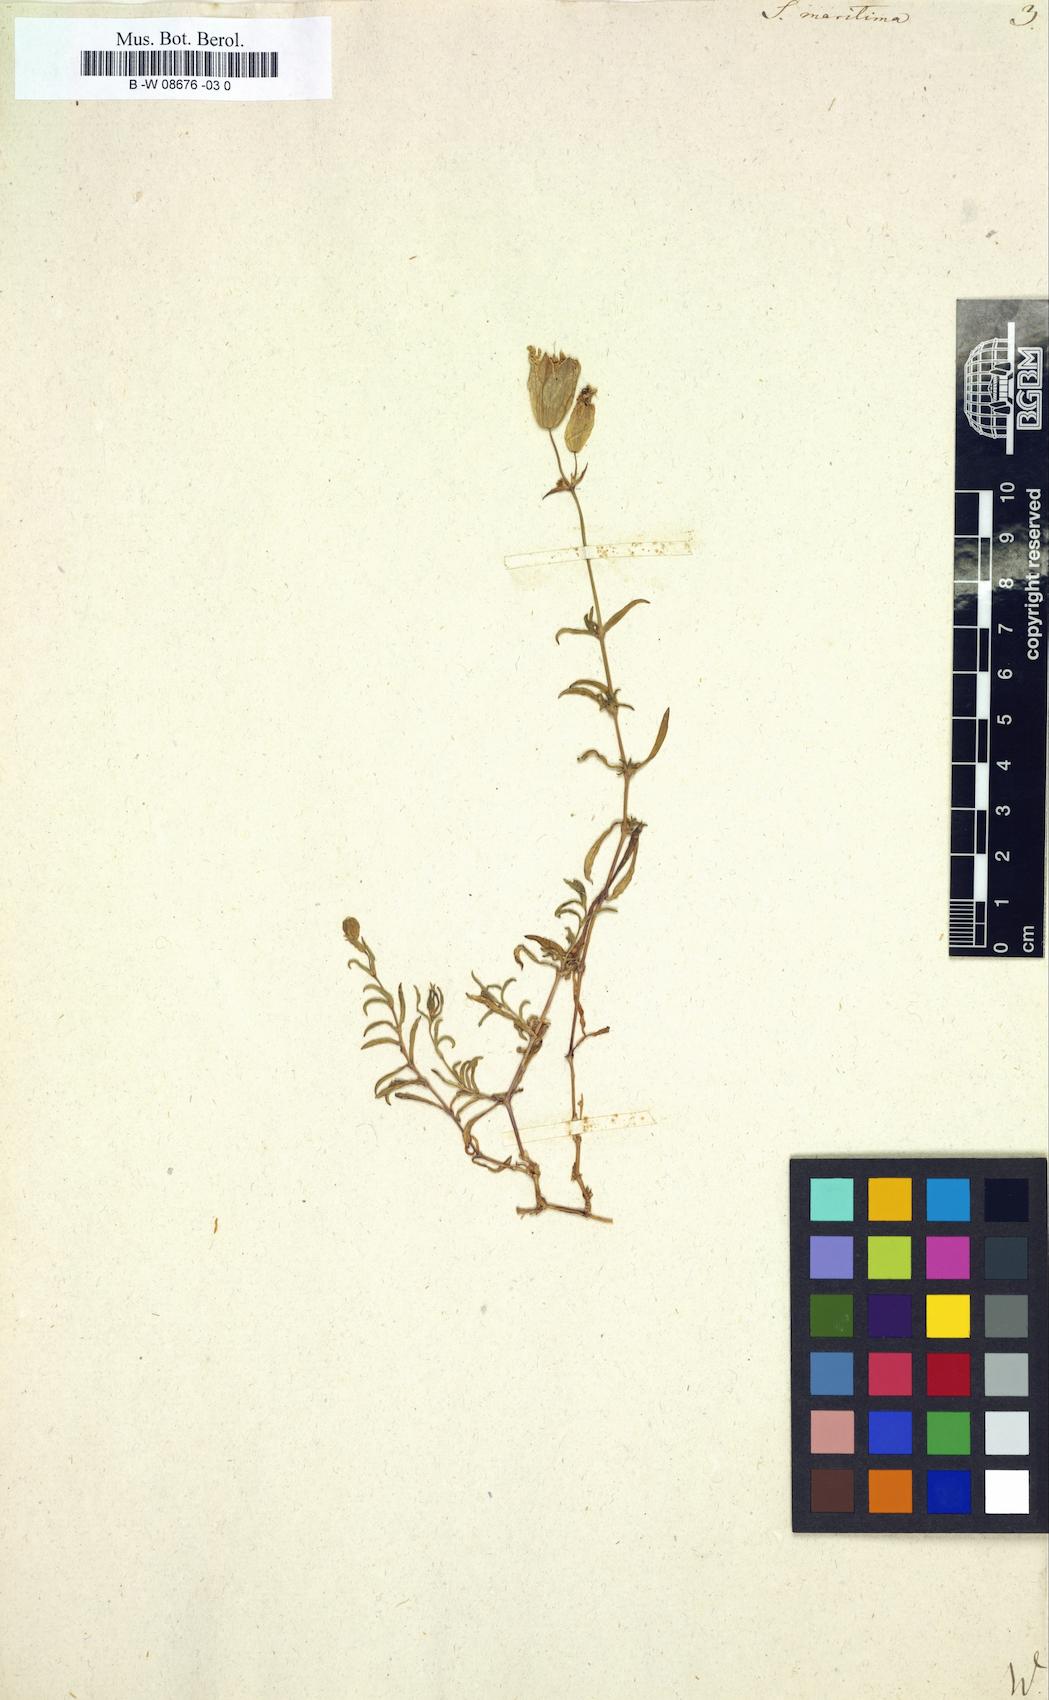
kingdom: Plantae
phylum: Tracheophyta
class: Magnoliopsida
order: Caryophyllales
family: Caryophyllaceae
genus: Silene
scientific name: Silene
